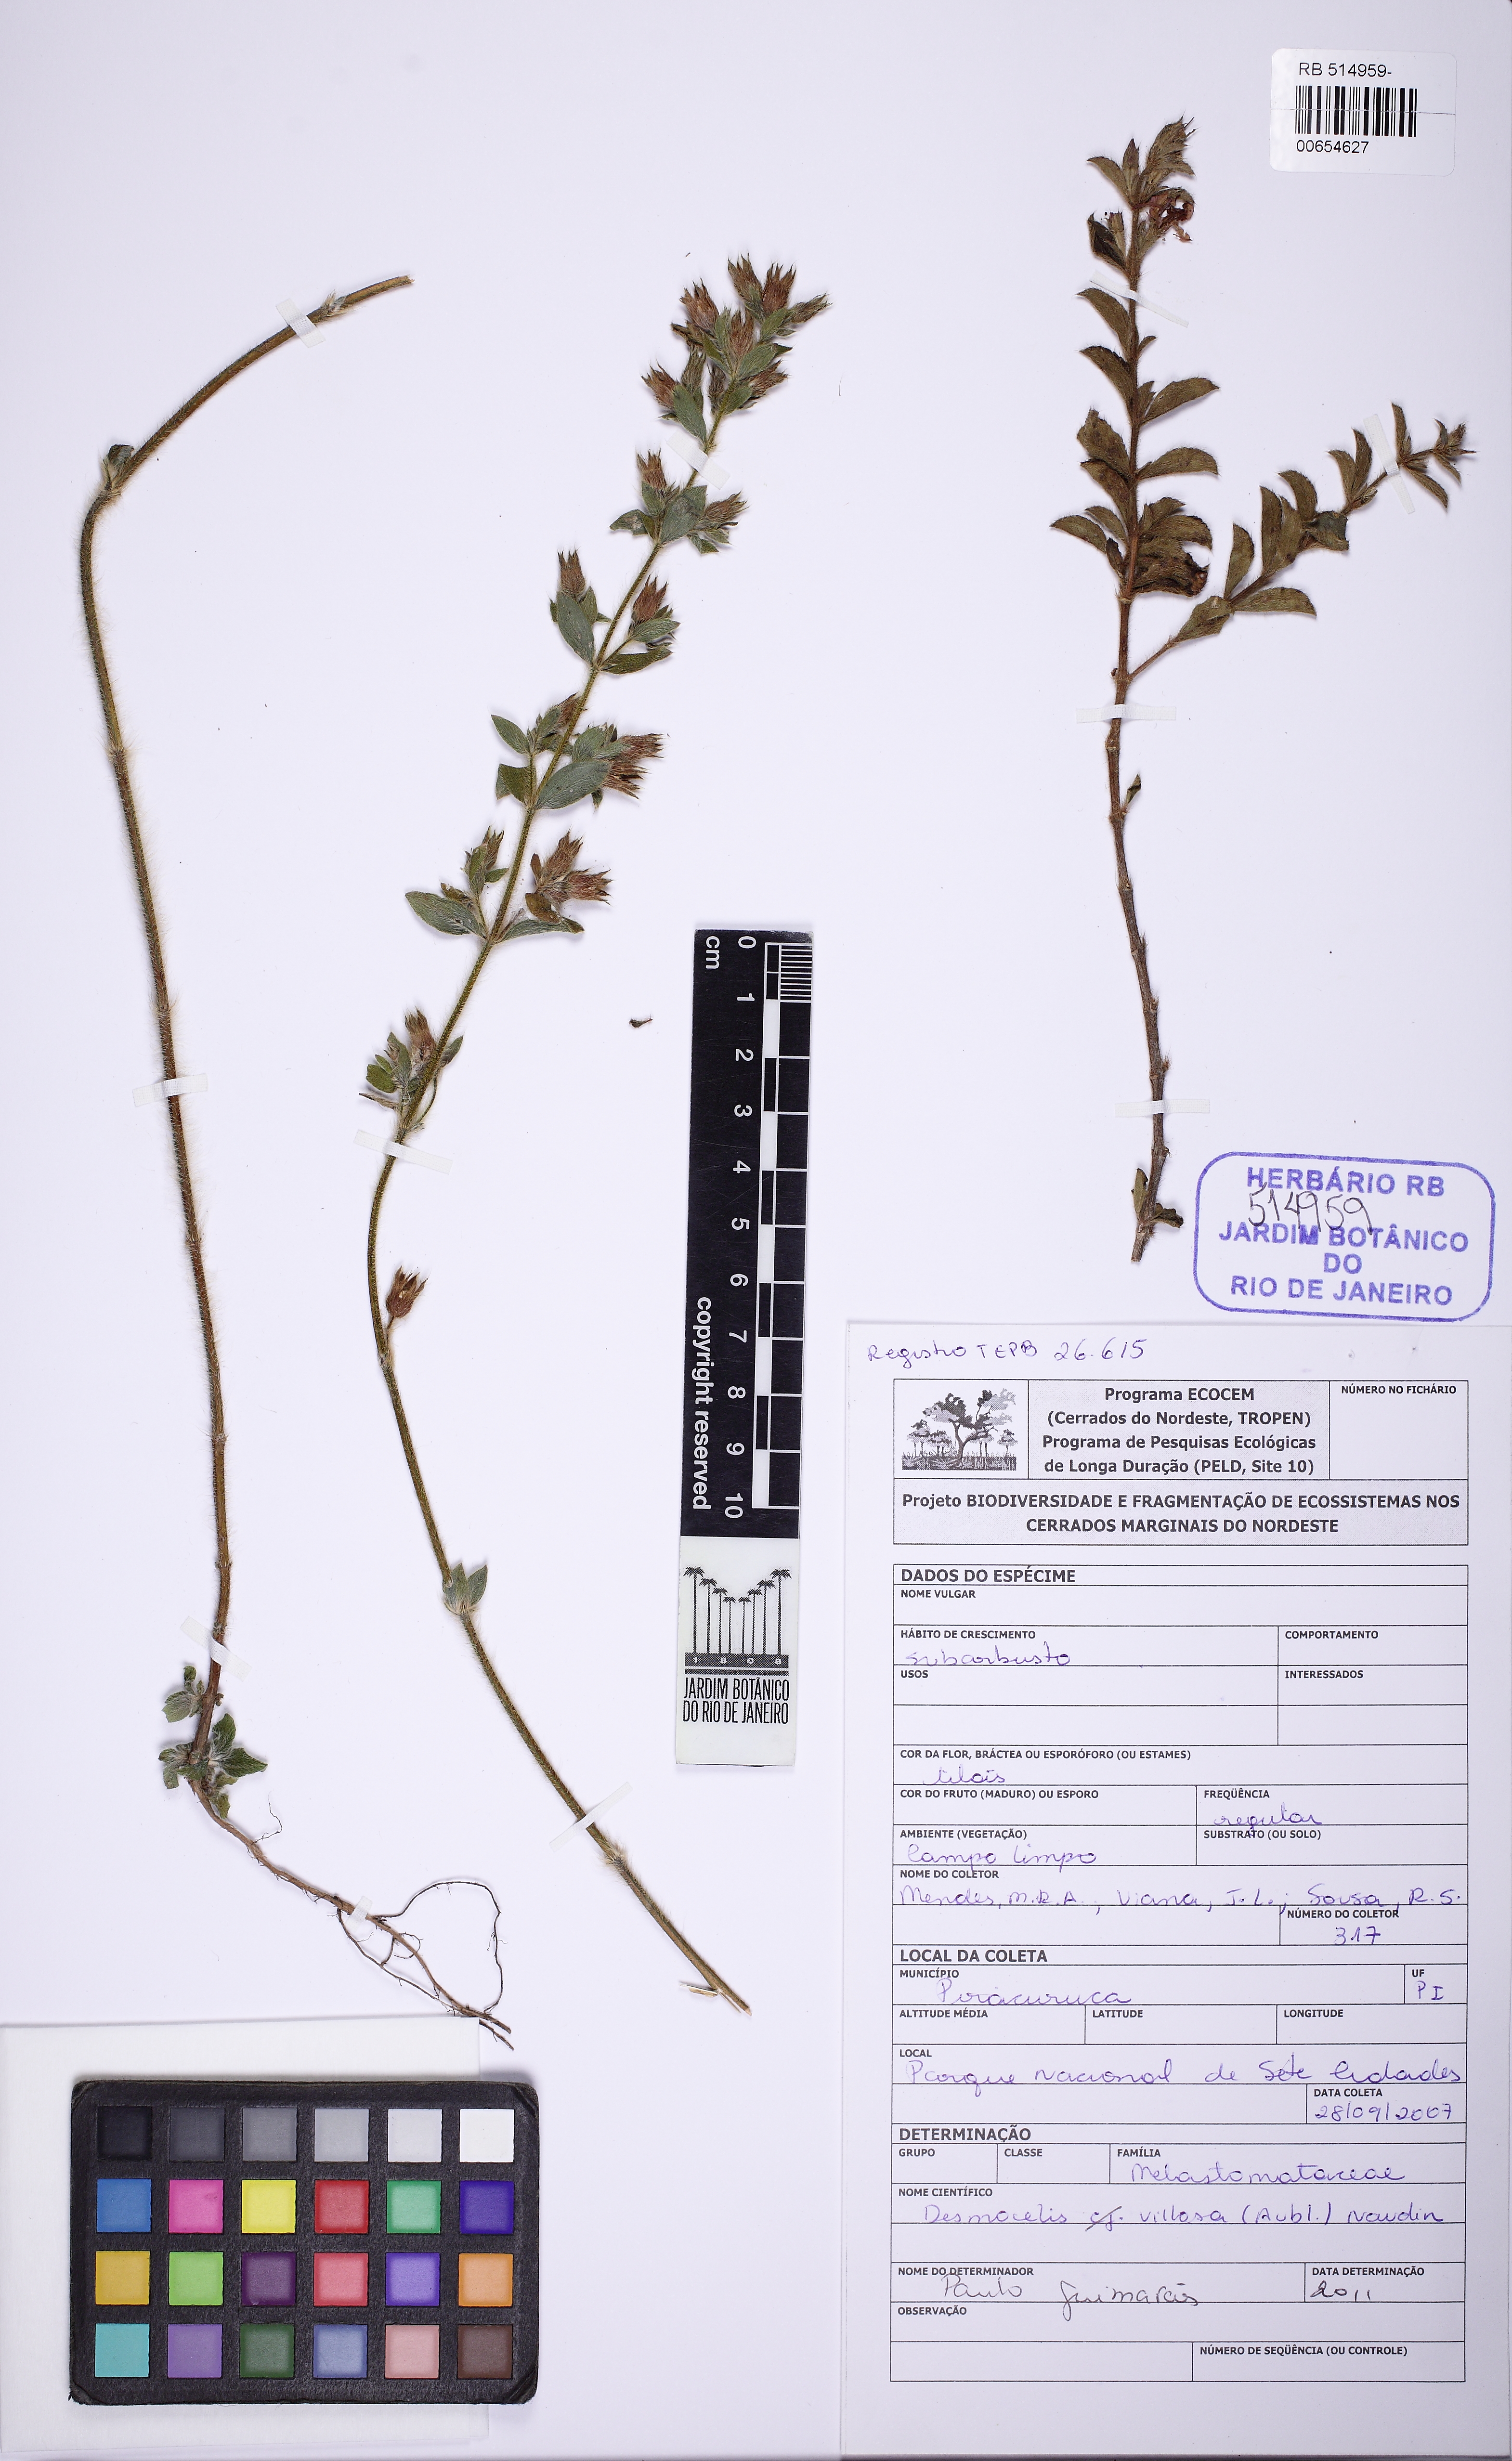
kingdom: Plantae
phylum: Tracheophyta
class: Magnoliopsida
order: Myrtales
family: Melastomataceae
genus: Desmoscelis
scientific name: Desmoscelis villosa
